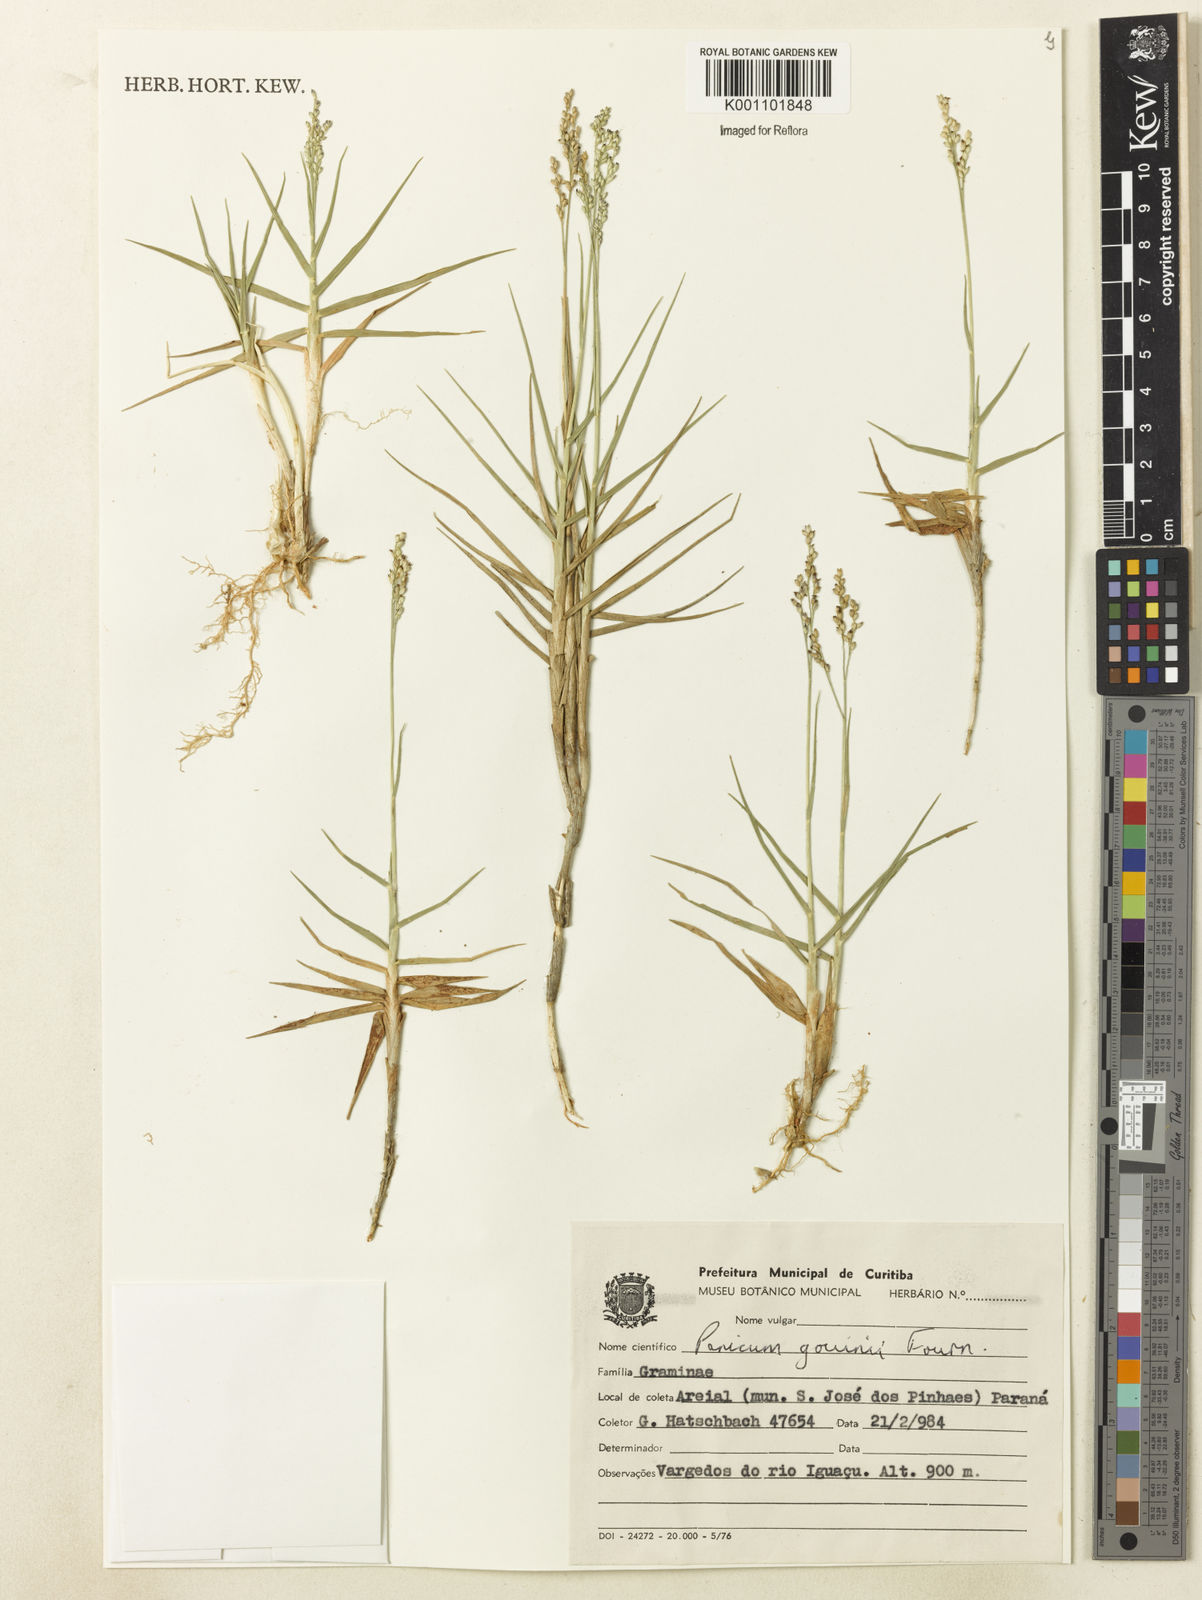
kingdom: Plantae
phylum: Tracheophyta
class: Liliopsida
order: Poales
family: Poaceae
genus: Panicum
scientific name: Panicum gouinii
